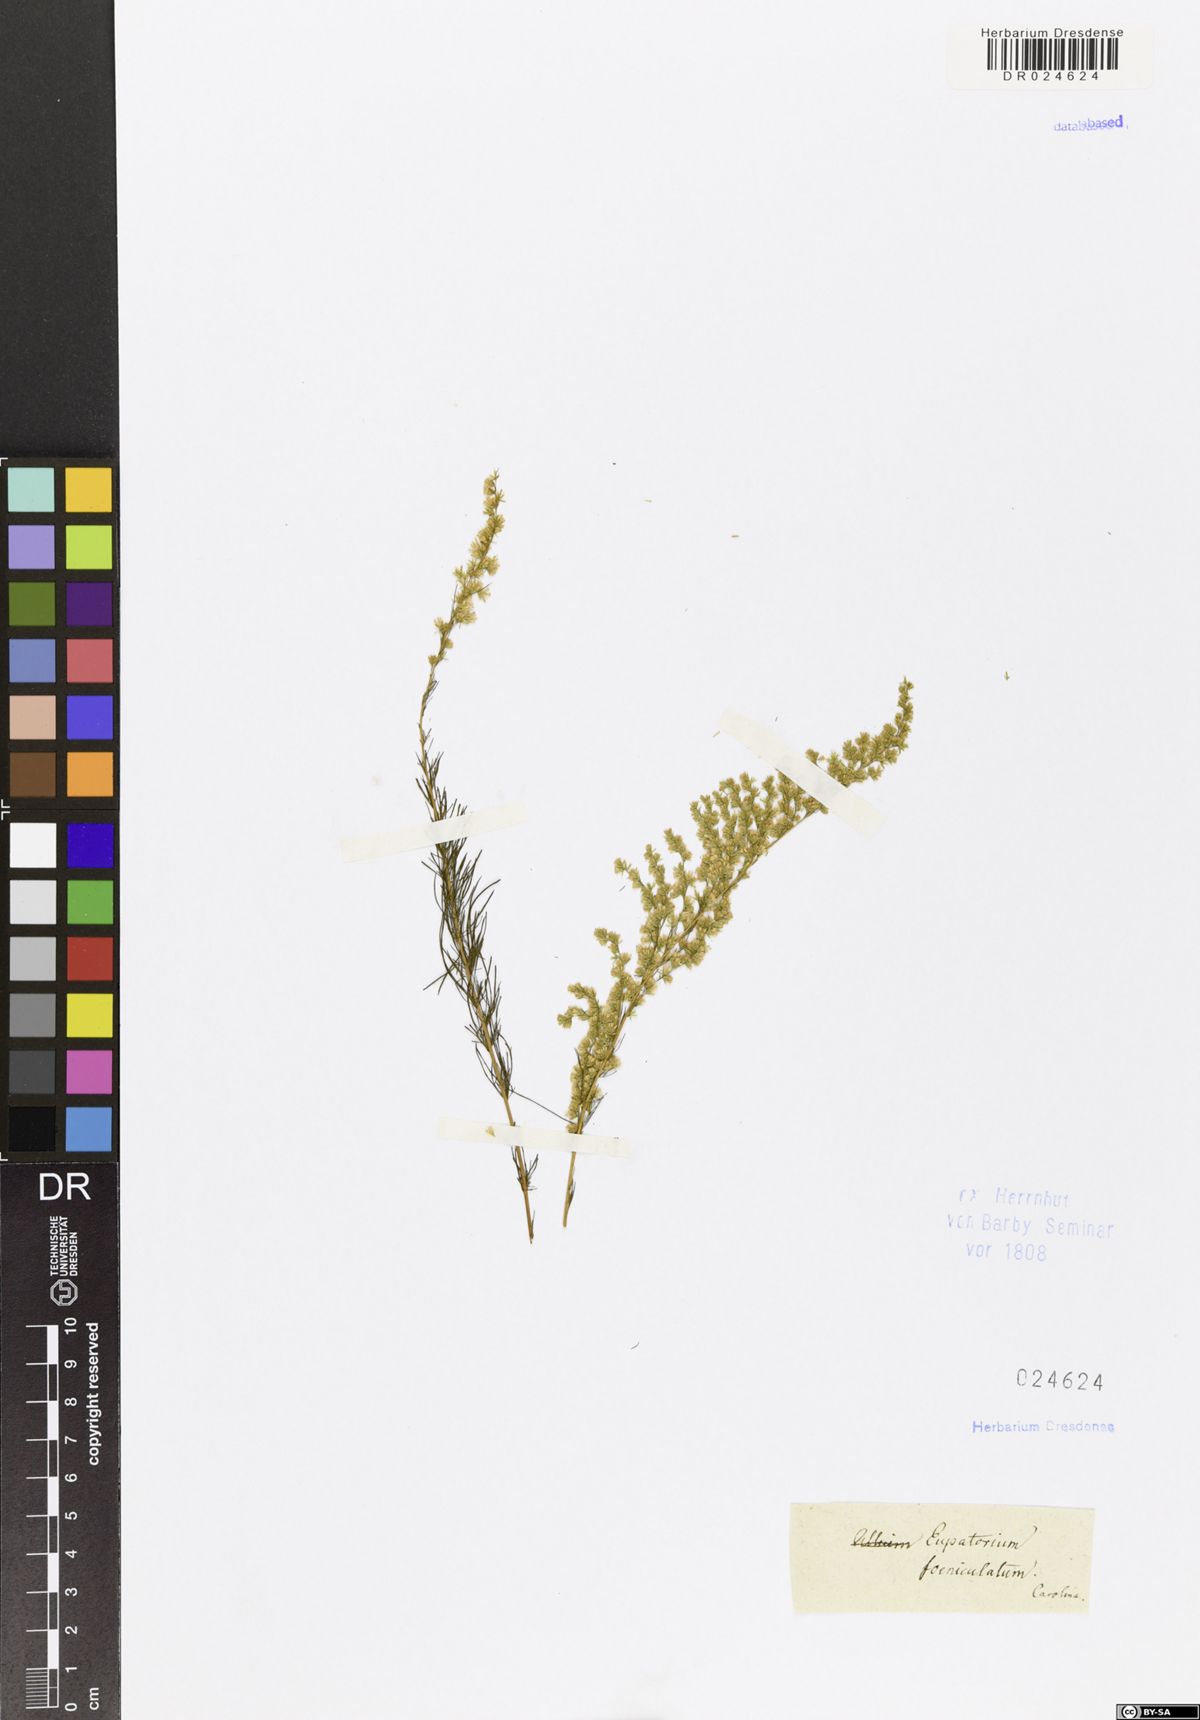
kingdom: Plantae
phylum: Tracheophyta
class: Magnoliopsida
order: Asterales
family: Asteraceae
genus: Eupatorium
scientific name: Eupatorium capillifolium
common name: Dog-fennel
